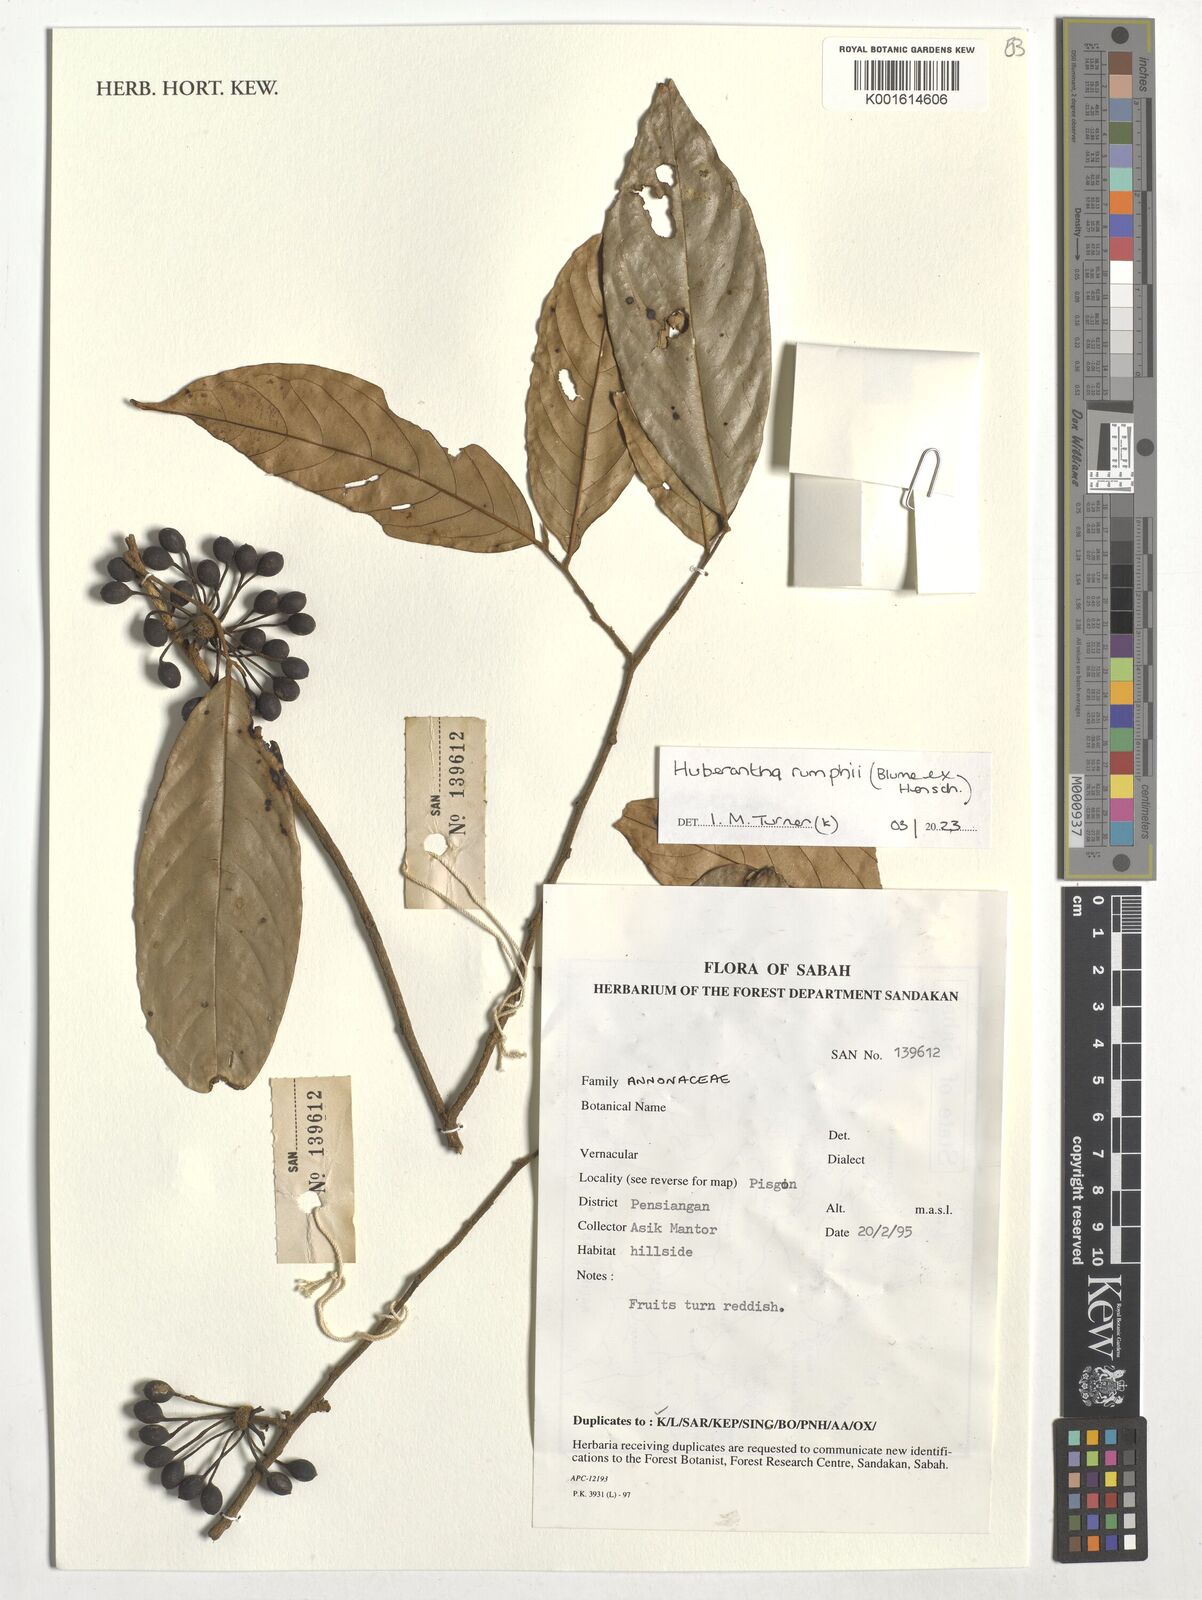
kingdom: Plantae
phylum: Tracheophyta
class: Magnoliopsida
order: Magnoliales
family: Annonaceae
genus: Hubera
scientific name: Hubera rumphii
